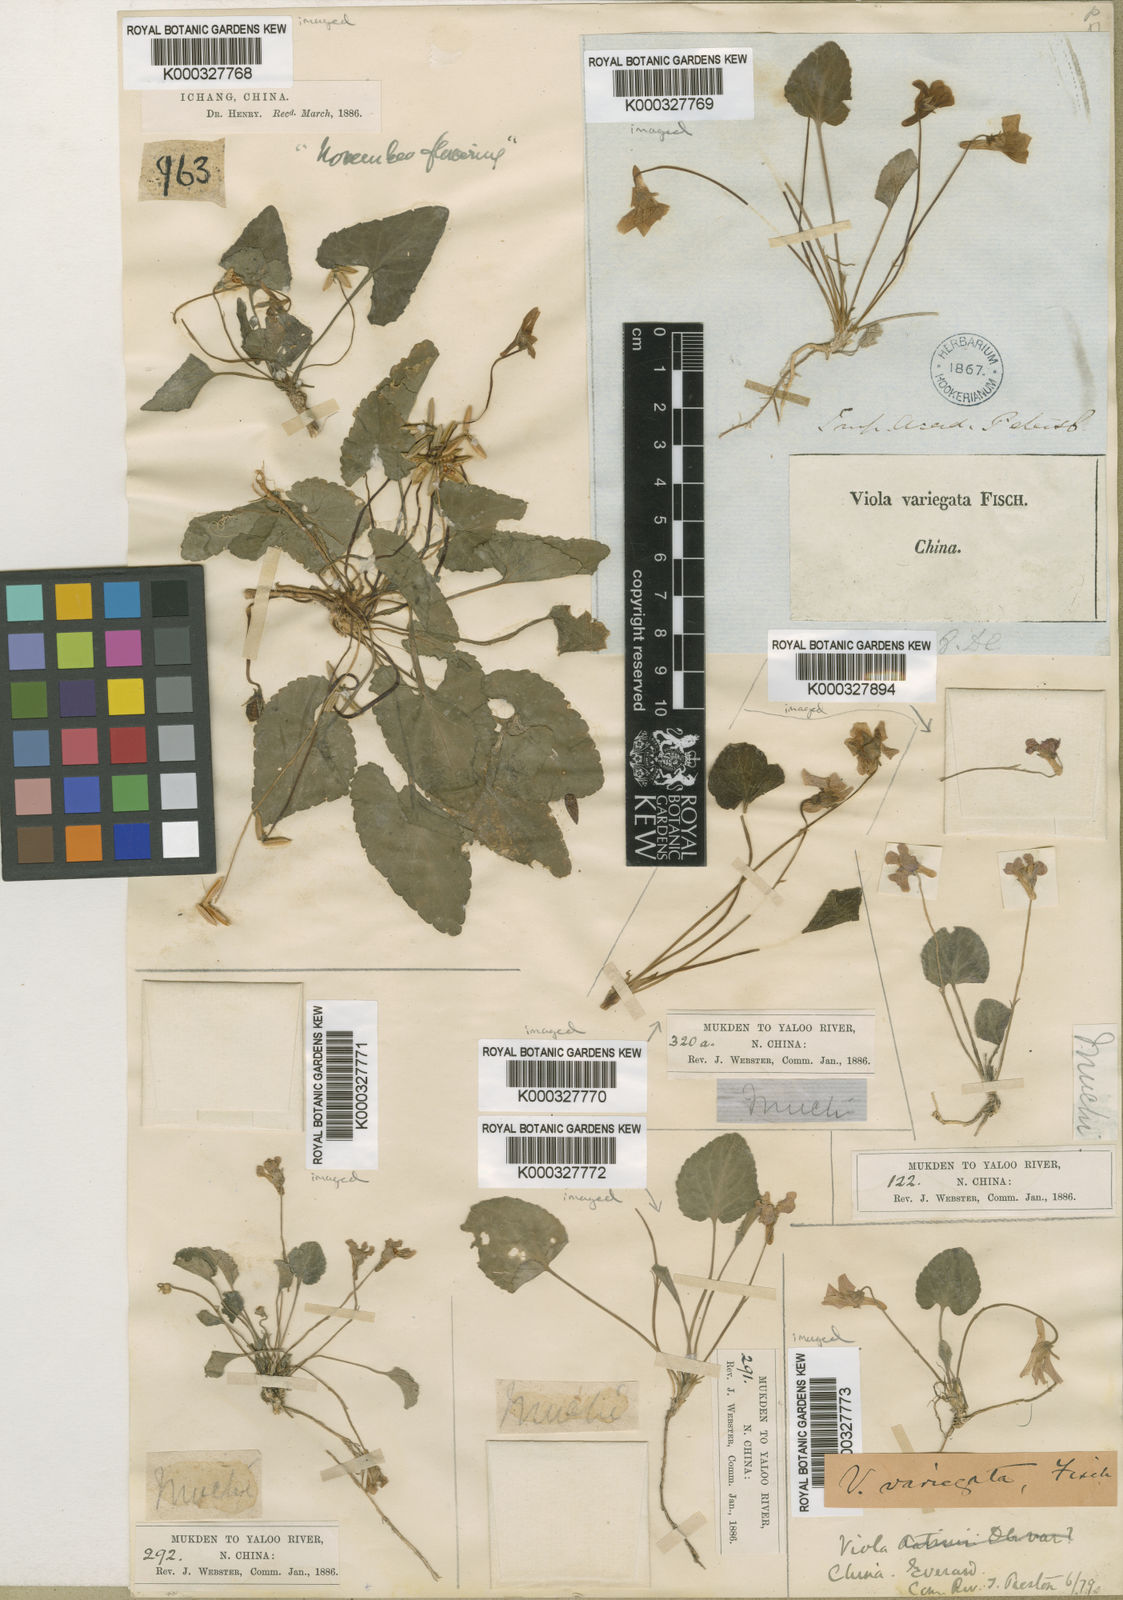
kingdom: Plantae
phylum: Tracheophyta
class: Magnoliopsida
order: Malpighiales
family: Violaceae
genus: Viola
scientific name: Viola variegata
